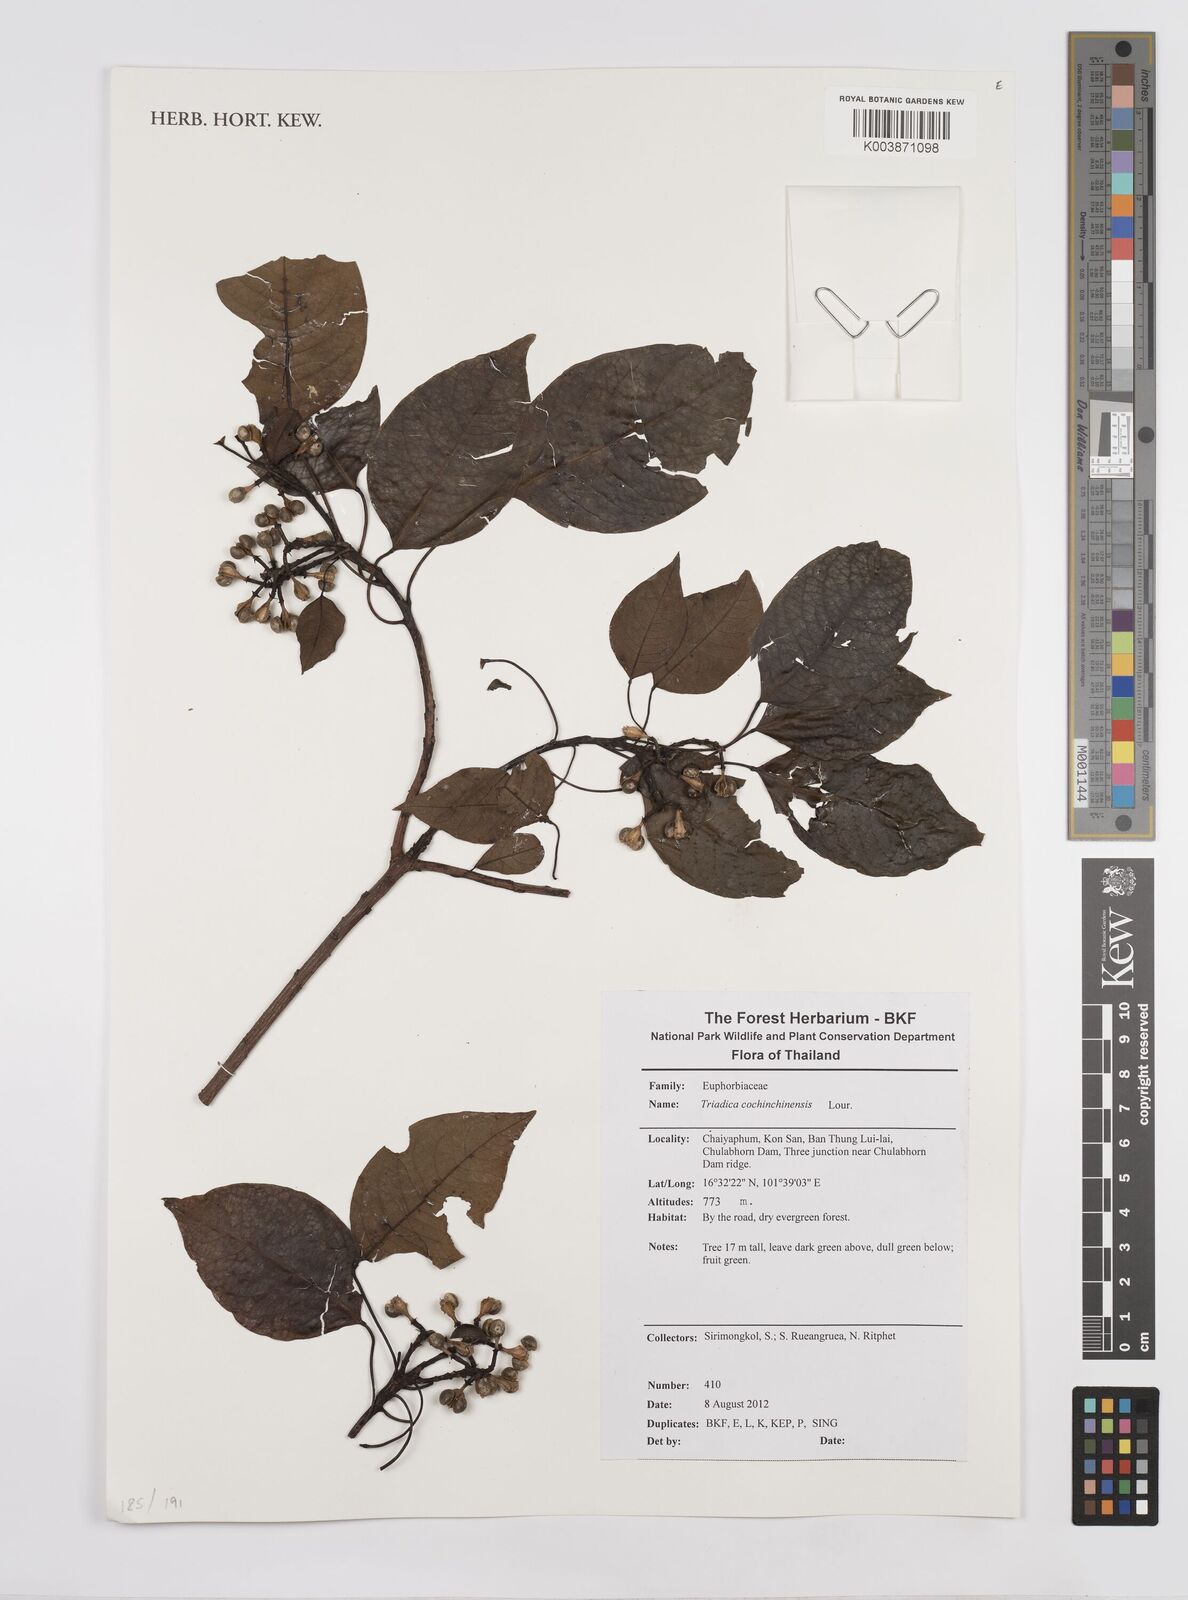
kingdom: Plantae
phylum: Tracheophyta
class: Magnoliopsida
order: Malpighiales
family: Euphorbiaceae
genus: Triadica
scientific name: Triadica cochinchinensis
